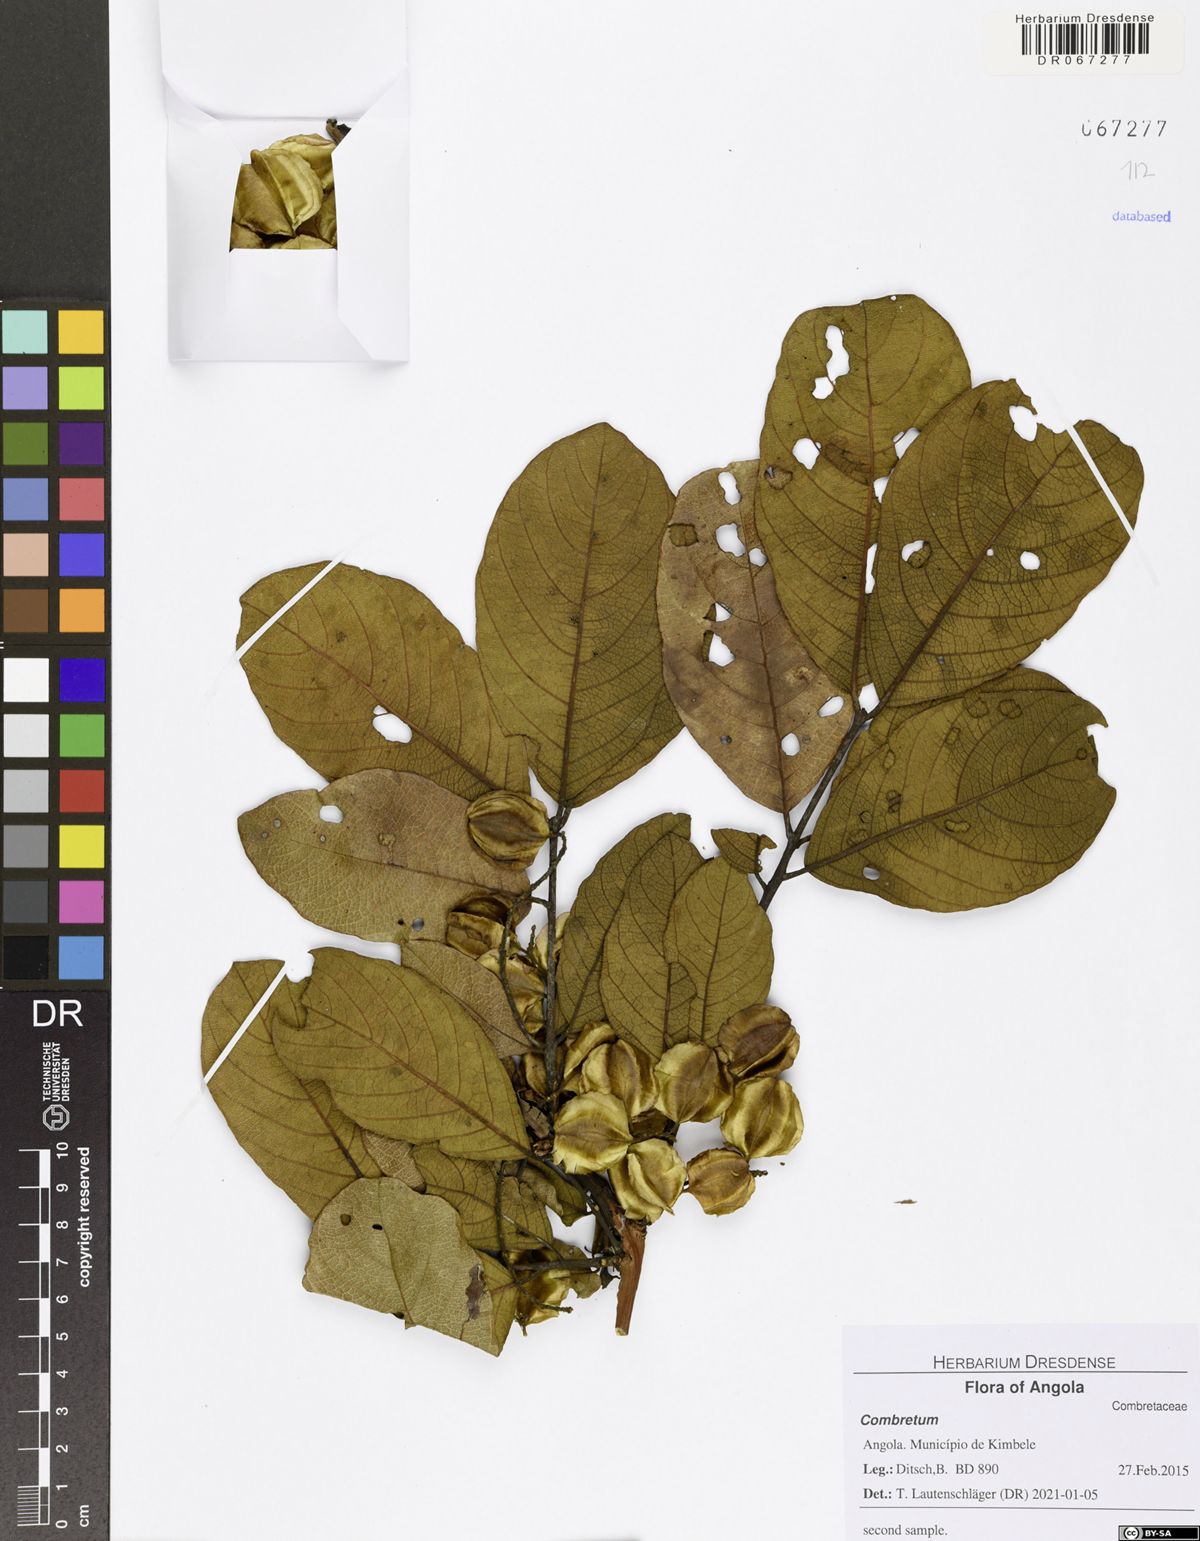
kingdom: Plantae
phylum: Tracheophyta
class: Magnoliopsida
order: Myrtales
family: Combretaceae
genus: Combretum
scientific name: Combretum
